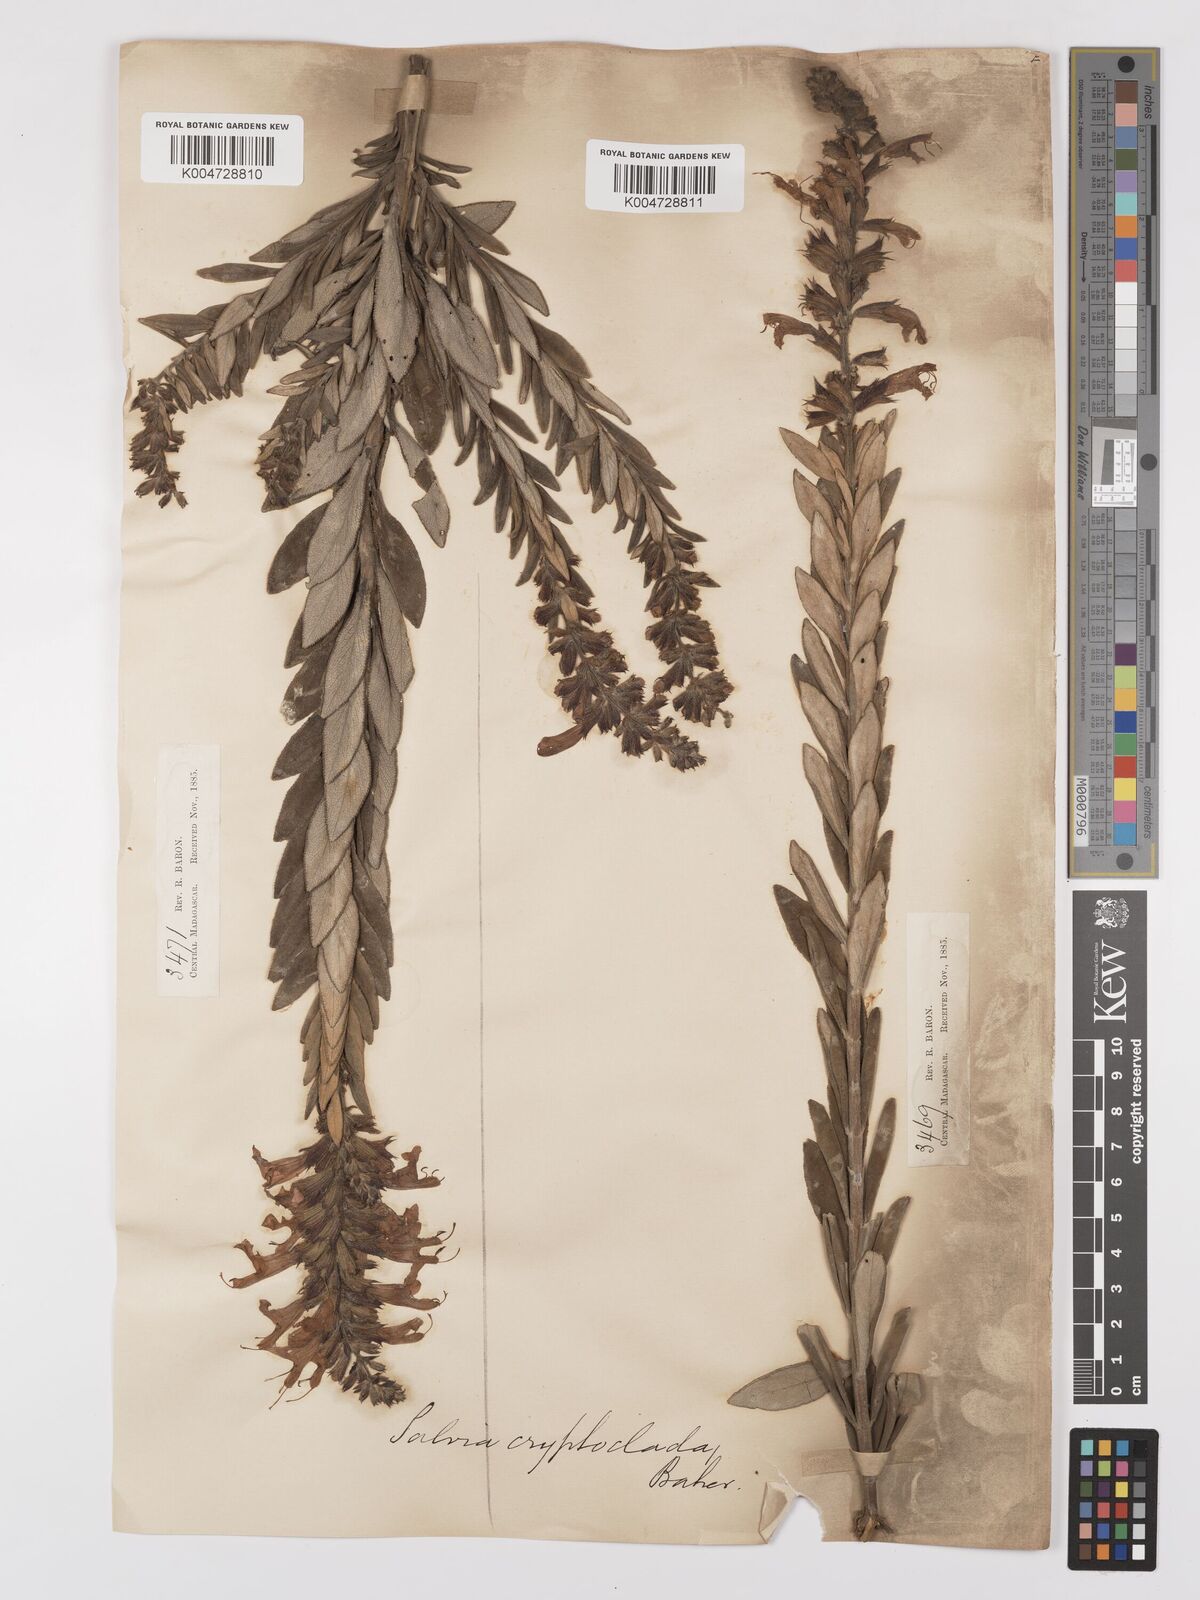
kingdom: Plantae
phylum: Tracheophyta
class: Magnoliopsida
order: Lamiales
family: Lamiaceae
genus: Salvia
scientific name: Salvia cryptoclada
